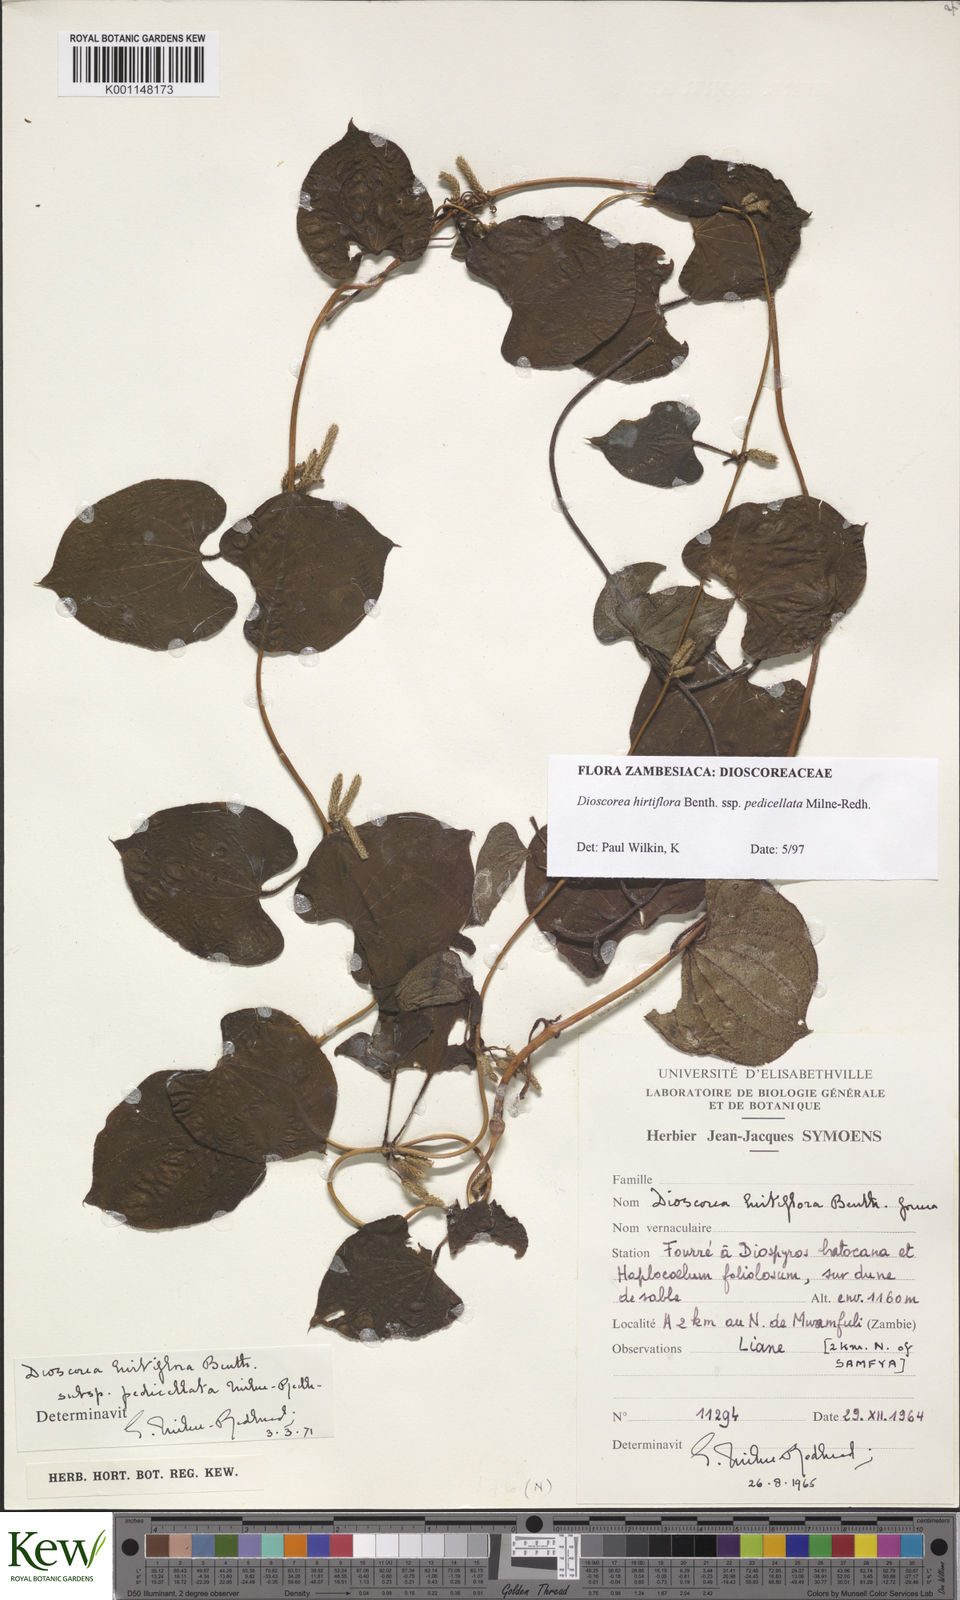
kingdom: Plantae
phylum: Tracheophyta
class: Liliopsida
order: Dioscoreales
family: Dioscoreaceae
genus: Dioscorea
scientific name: Dioscorea hirtiflora
